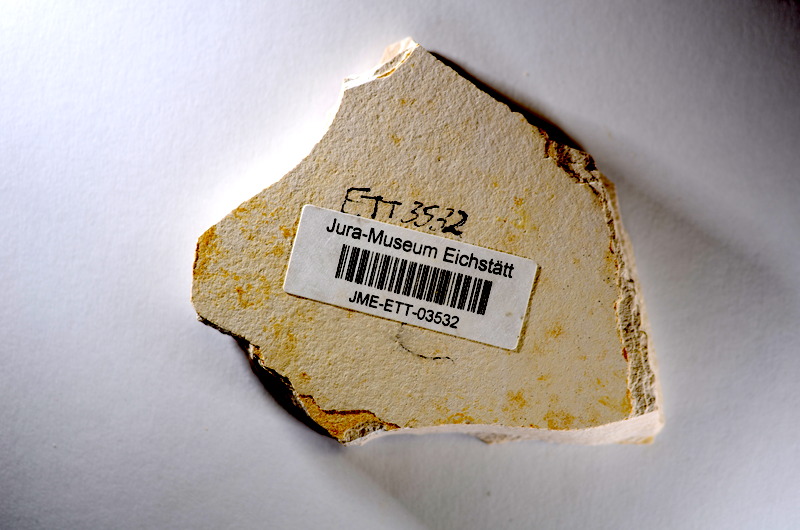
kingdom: Animalia
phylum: Chordata
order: Salmoniformes
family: Orthogonikleithridae
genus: Orthogonikleithrus
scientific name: Orthogonikleithrus hoelli
